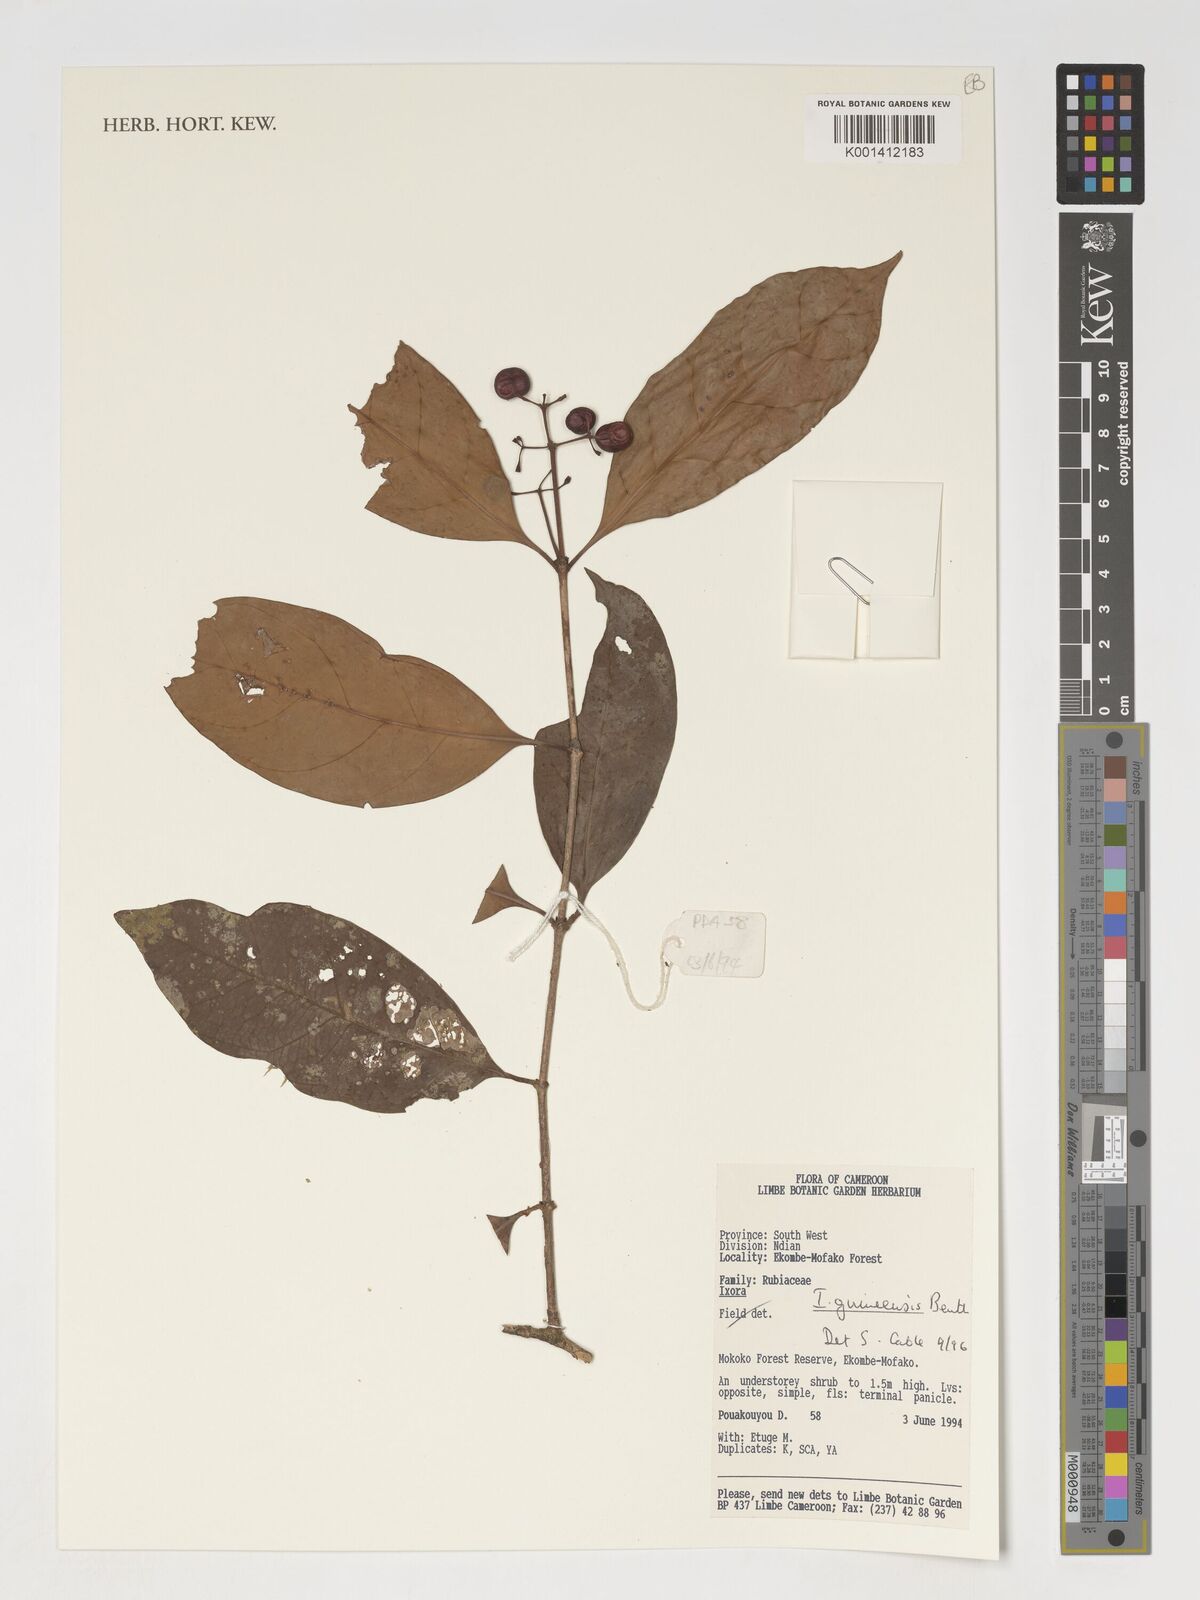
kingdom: Plantae
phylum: Tracheophyta
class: Magnoliopsida
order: Gentianales
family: Rubiaceae
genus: Ixora
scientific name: Ixora guineensis
